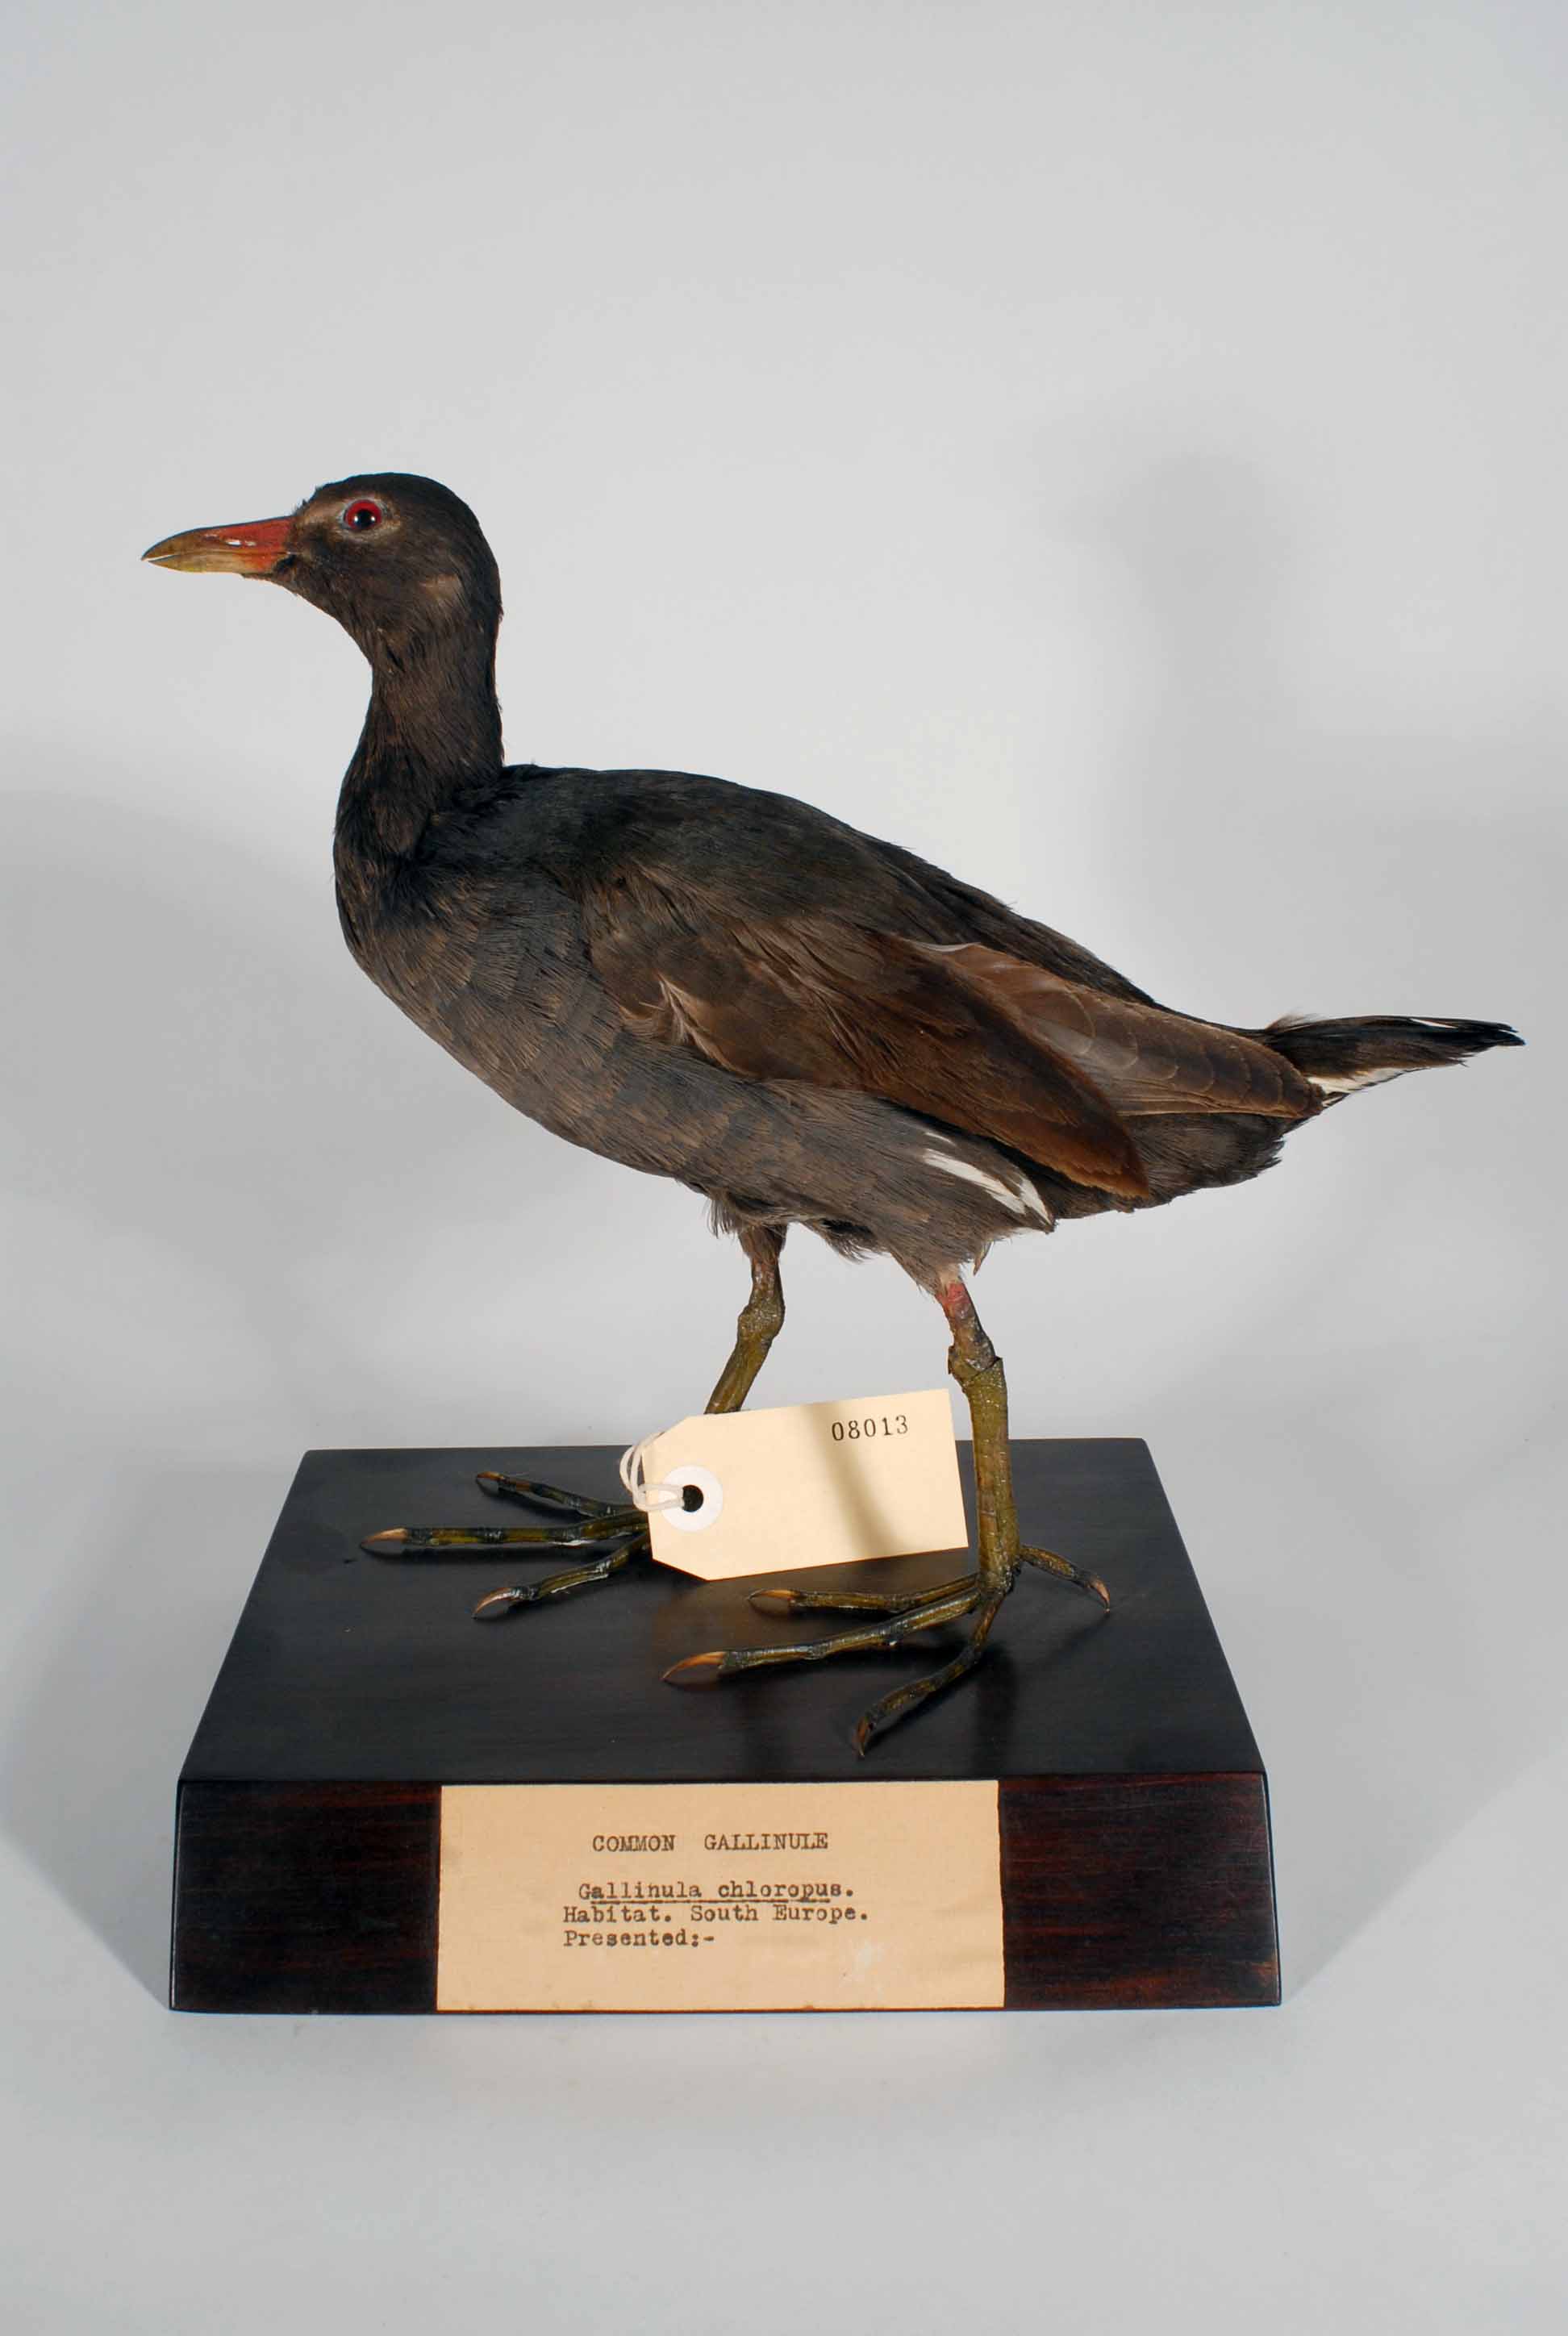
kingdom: Animalia
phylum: Chordata
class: Aves
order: Gruiformes
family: Rallidae
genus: Gallinula
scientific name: Gallinula chloropus
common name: Common moorhen
